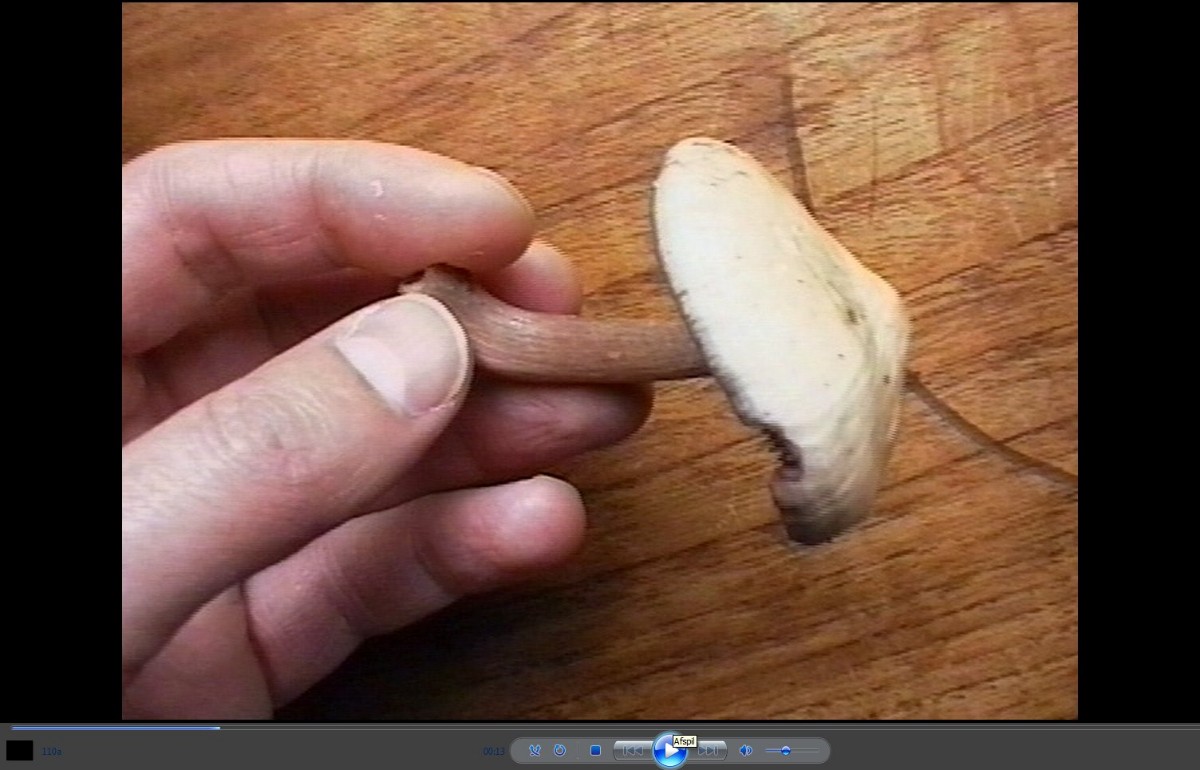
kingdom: Fungi
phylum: Basidiomycota
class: Agaricomycetes
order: Agaricales
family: Mycenaceae
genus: Mycena
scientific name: Mycena pelianthina
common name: mørkbladet huesvamp
